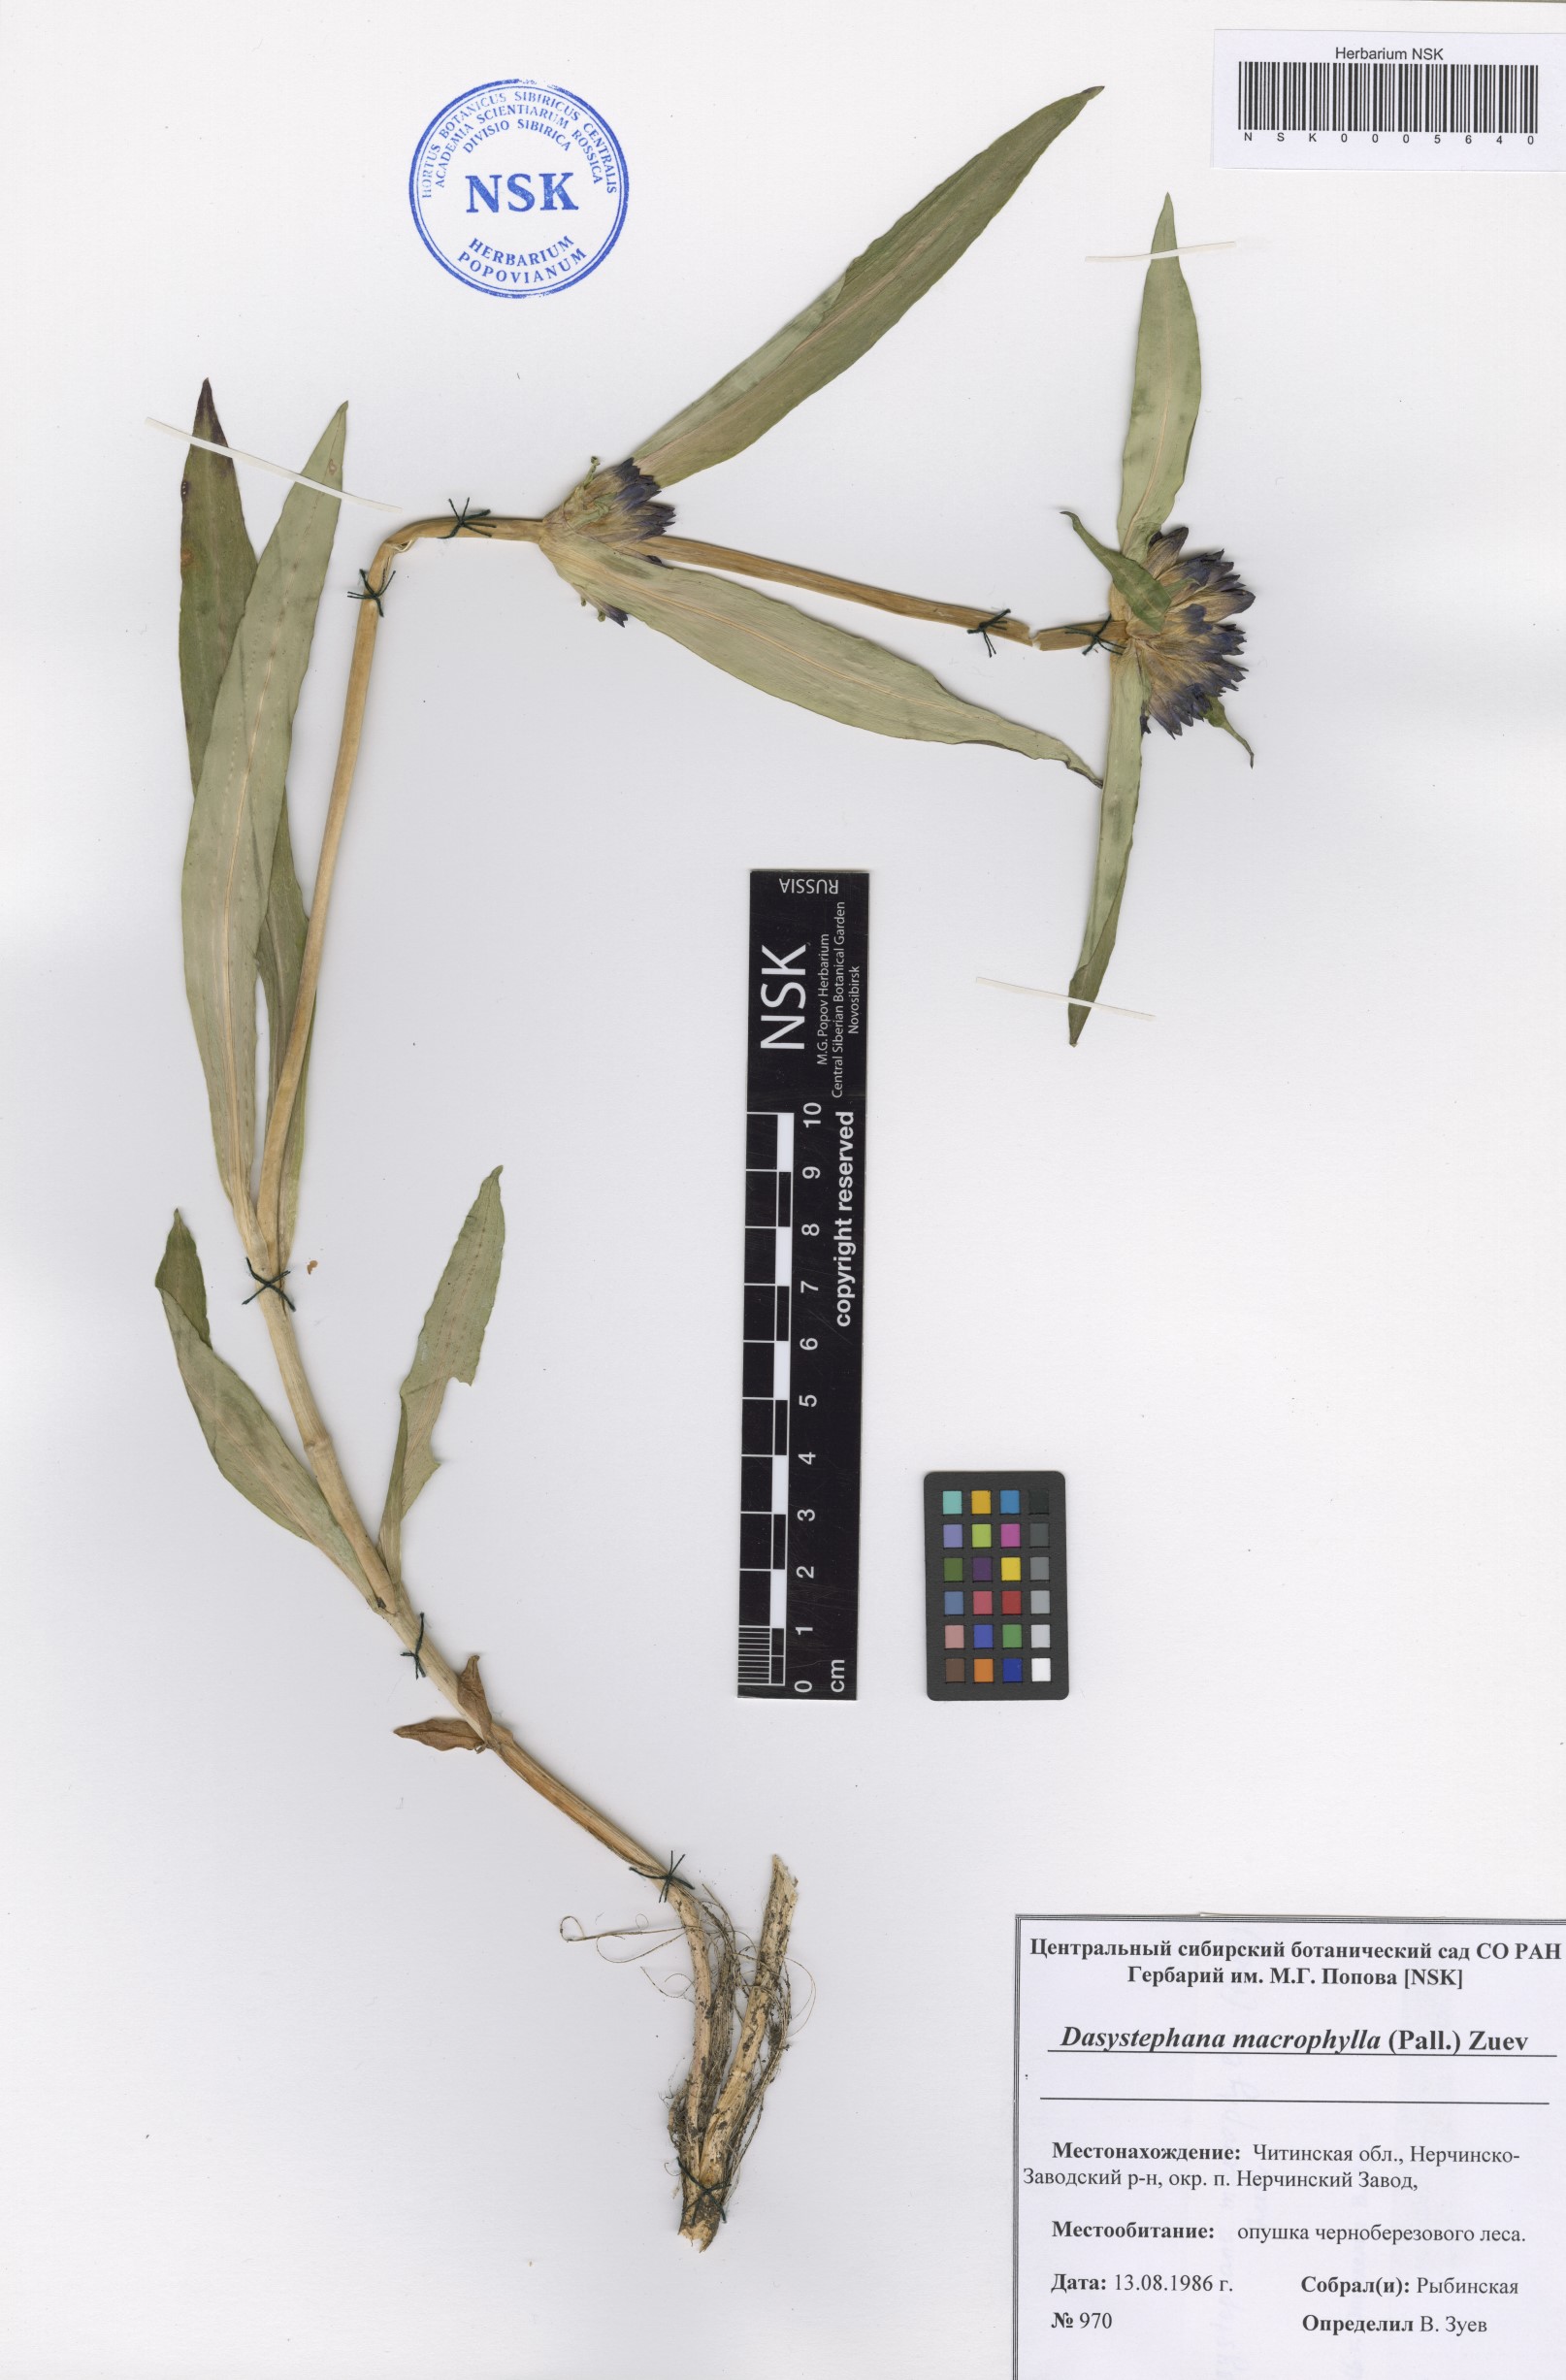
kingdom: Plantae
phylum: Tracheophyta
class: Magnoliopsida
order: Gentianales
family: Gentianaceae
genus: Gentiana
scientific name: Gentiana macrophylla
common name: Large-leaf gentian
